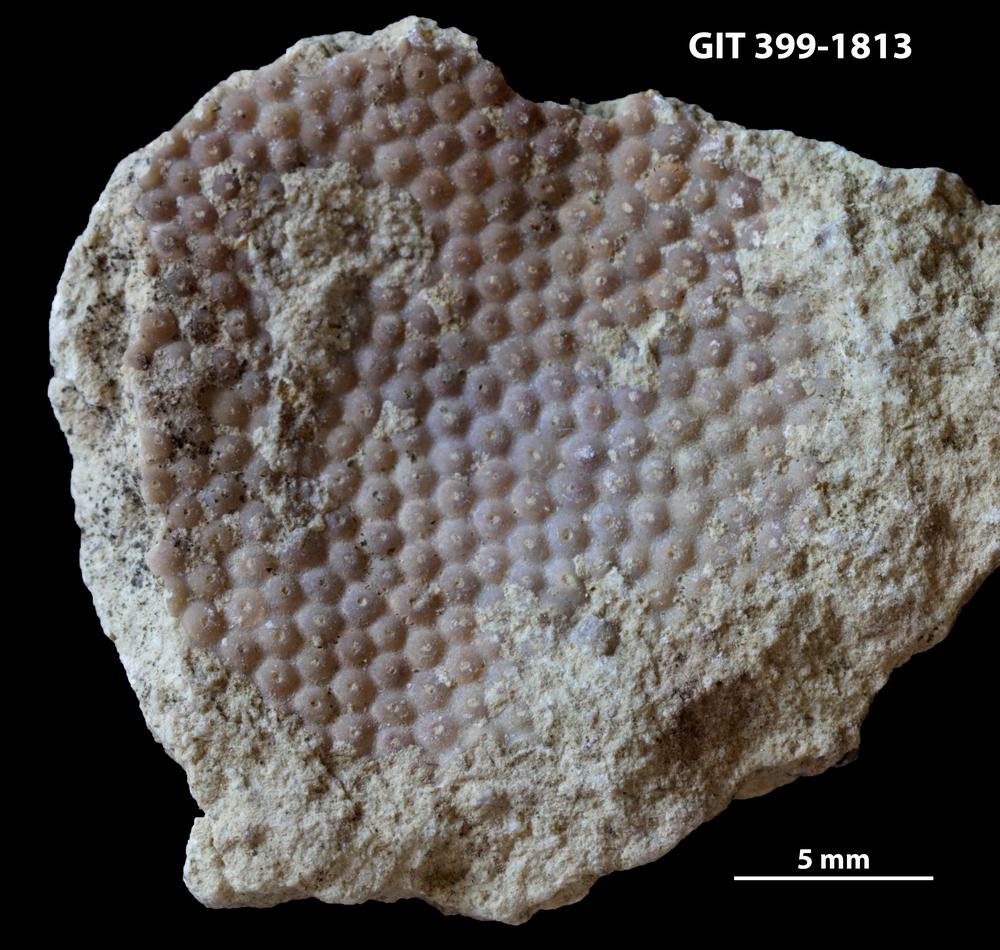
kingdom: Plantae
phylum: Chlorophyta
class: Ulvophyceae
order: Cyclocrinales
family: Cyclocrinaceae
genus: Mastopora
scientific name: Mastopora concava
